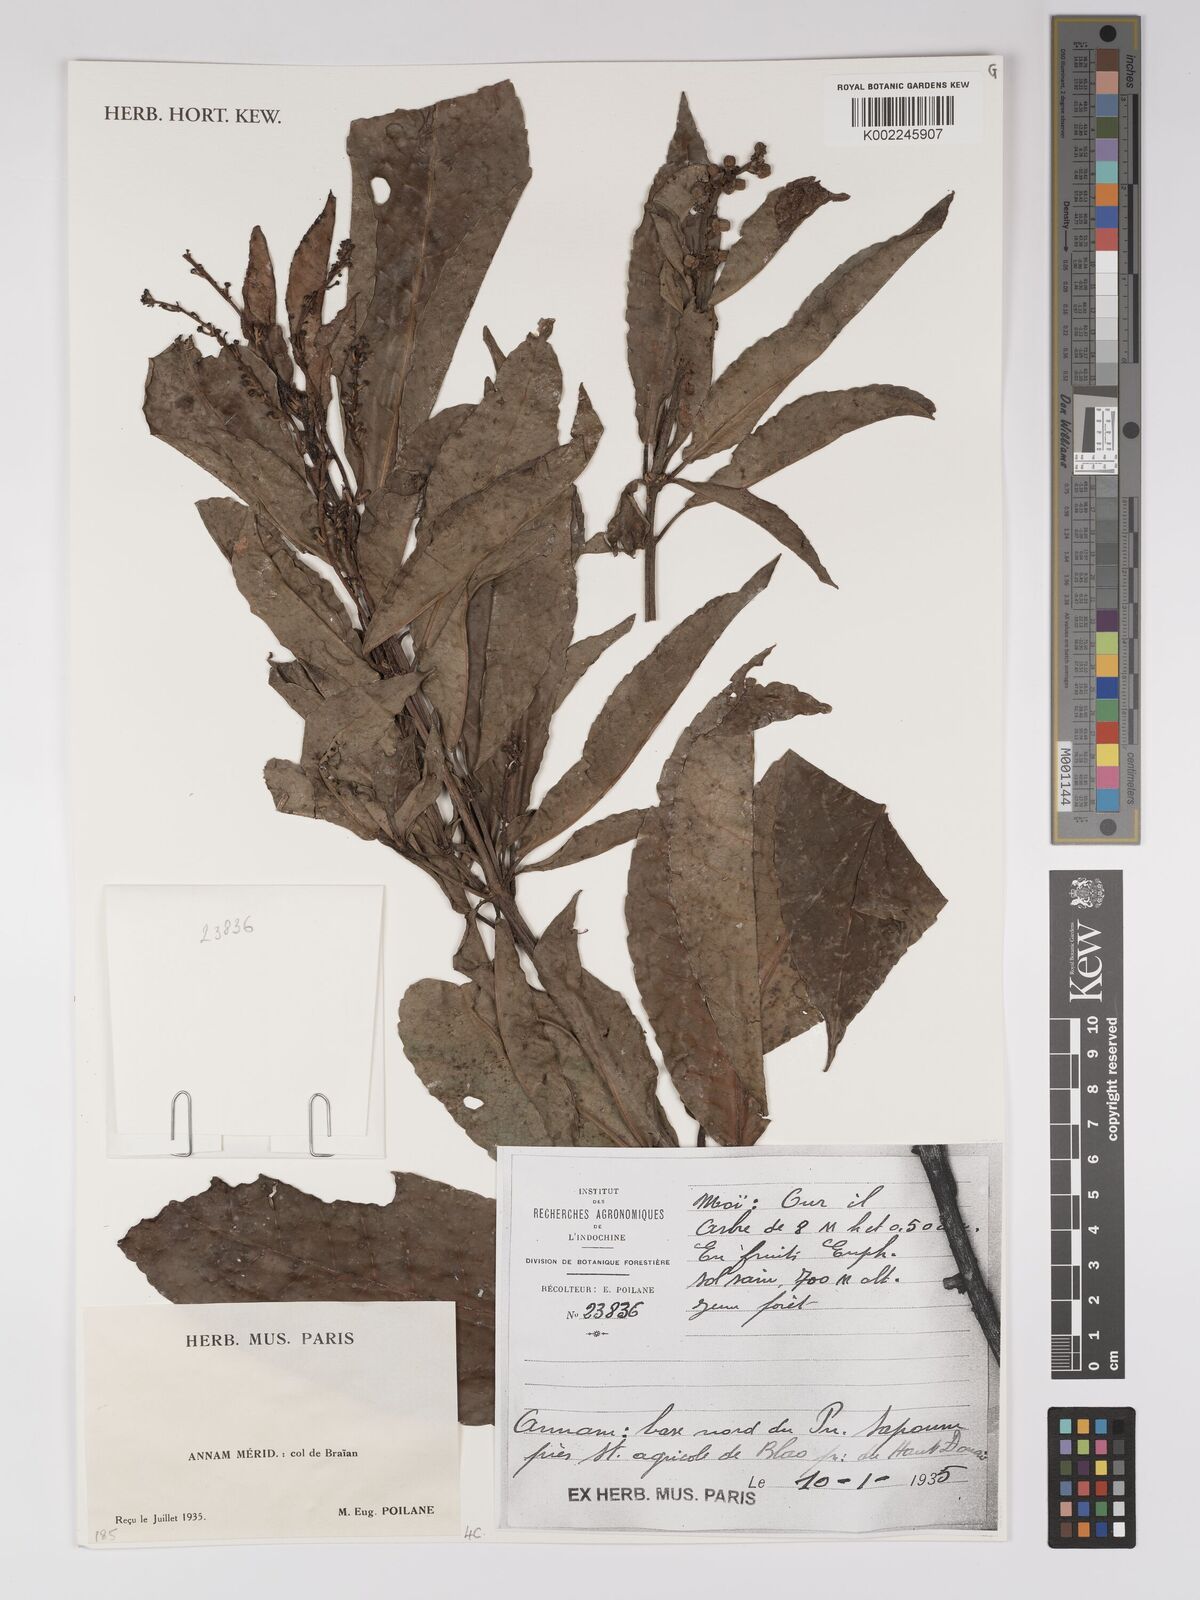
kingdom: Plantae
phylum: Tracheophyta
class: Magnoliopsida
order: Malpighiales
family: Euphorbiaceae
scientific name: Euphorbiaceae
